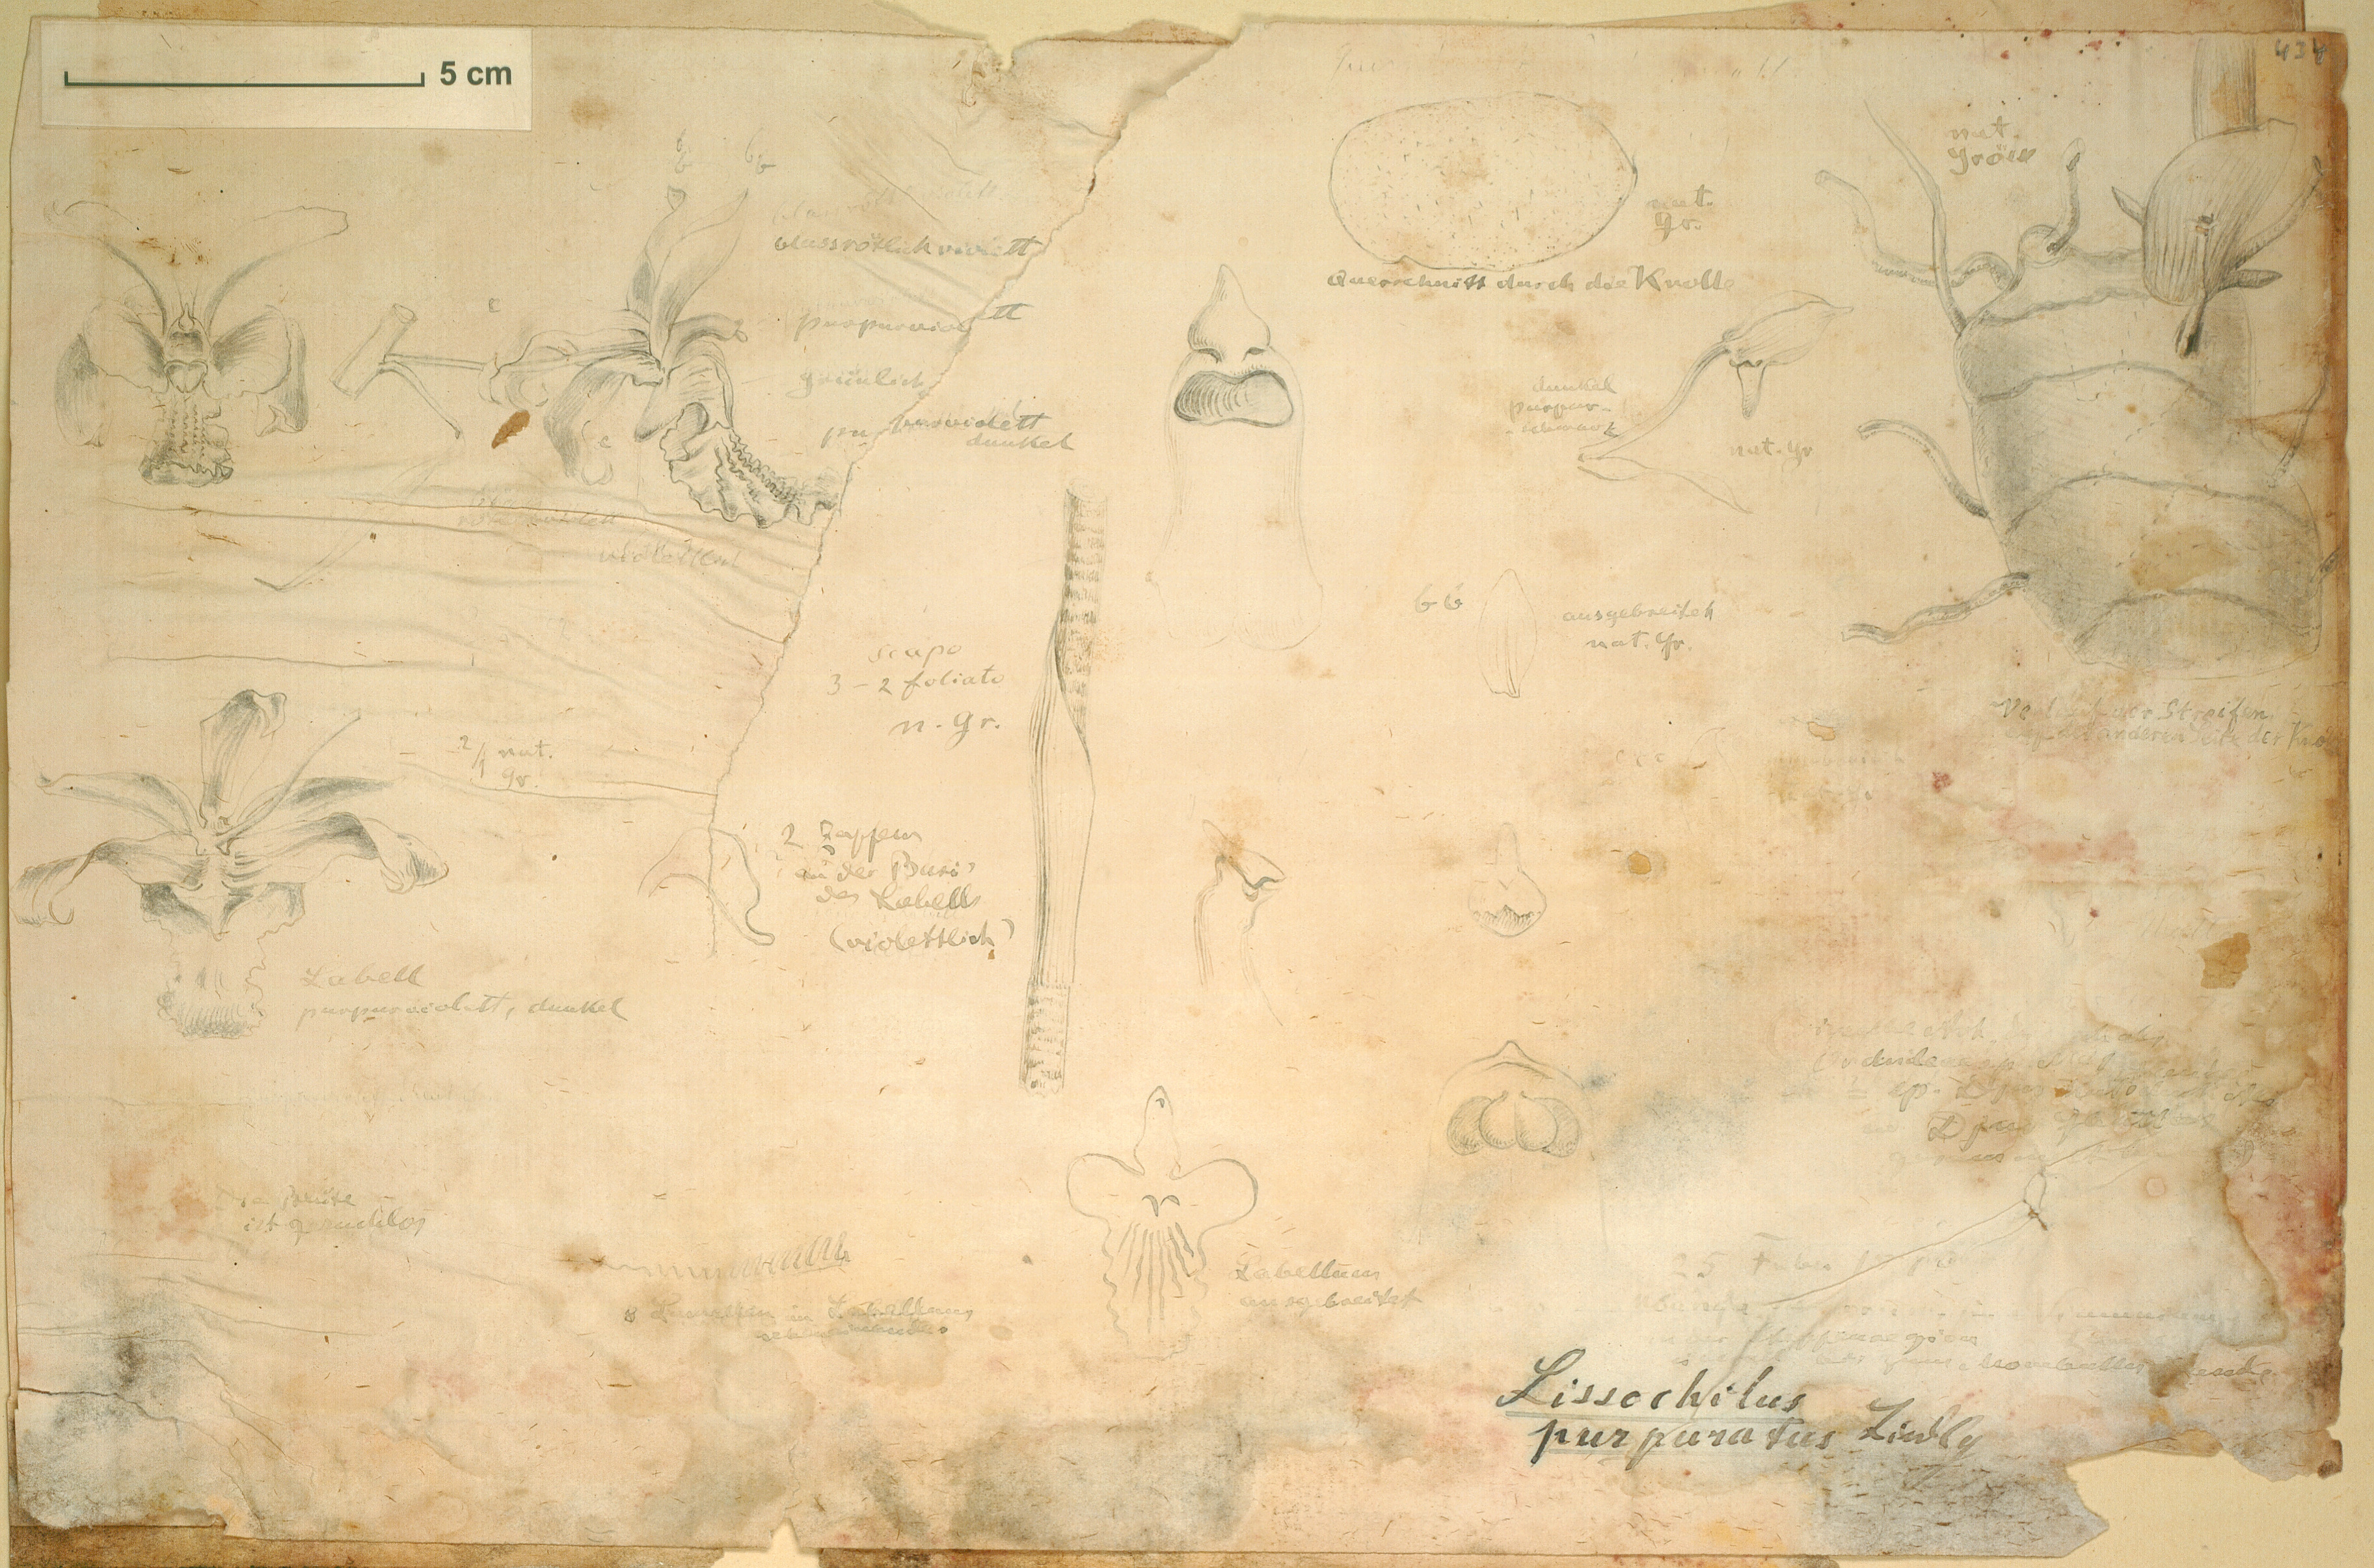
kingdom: Plantae
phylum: Tracheophyta
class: Liliopsida
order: Asparagales
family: Orchidaceae
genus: Eulophia
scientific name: Eulophia cristata
